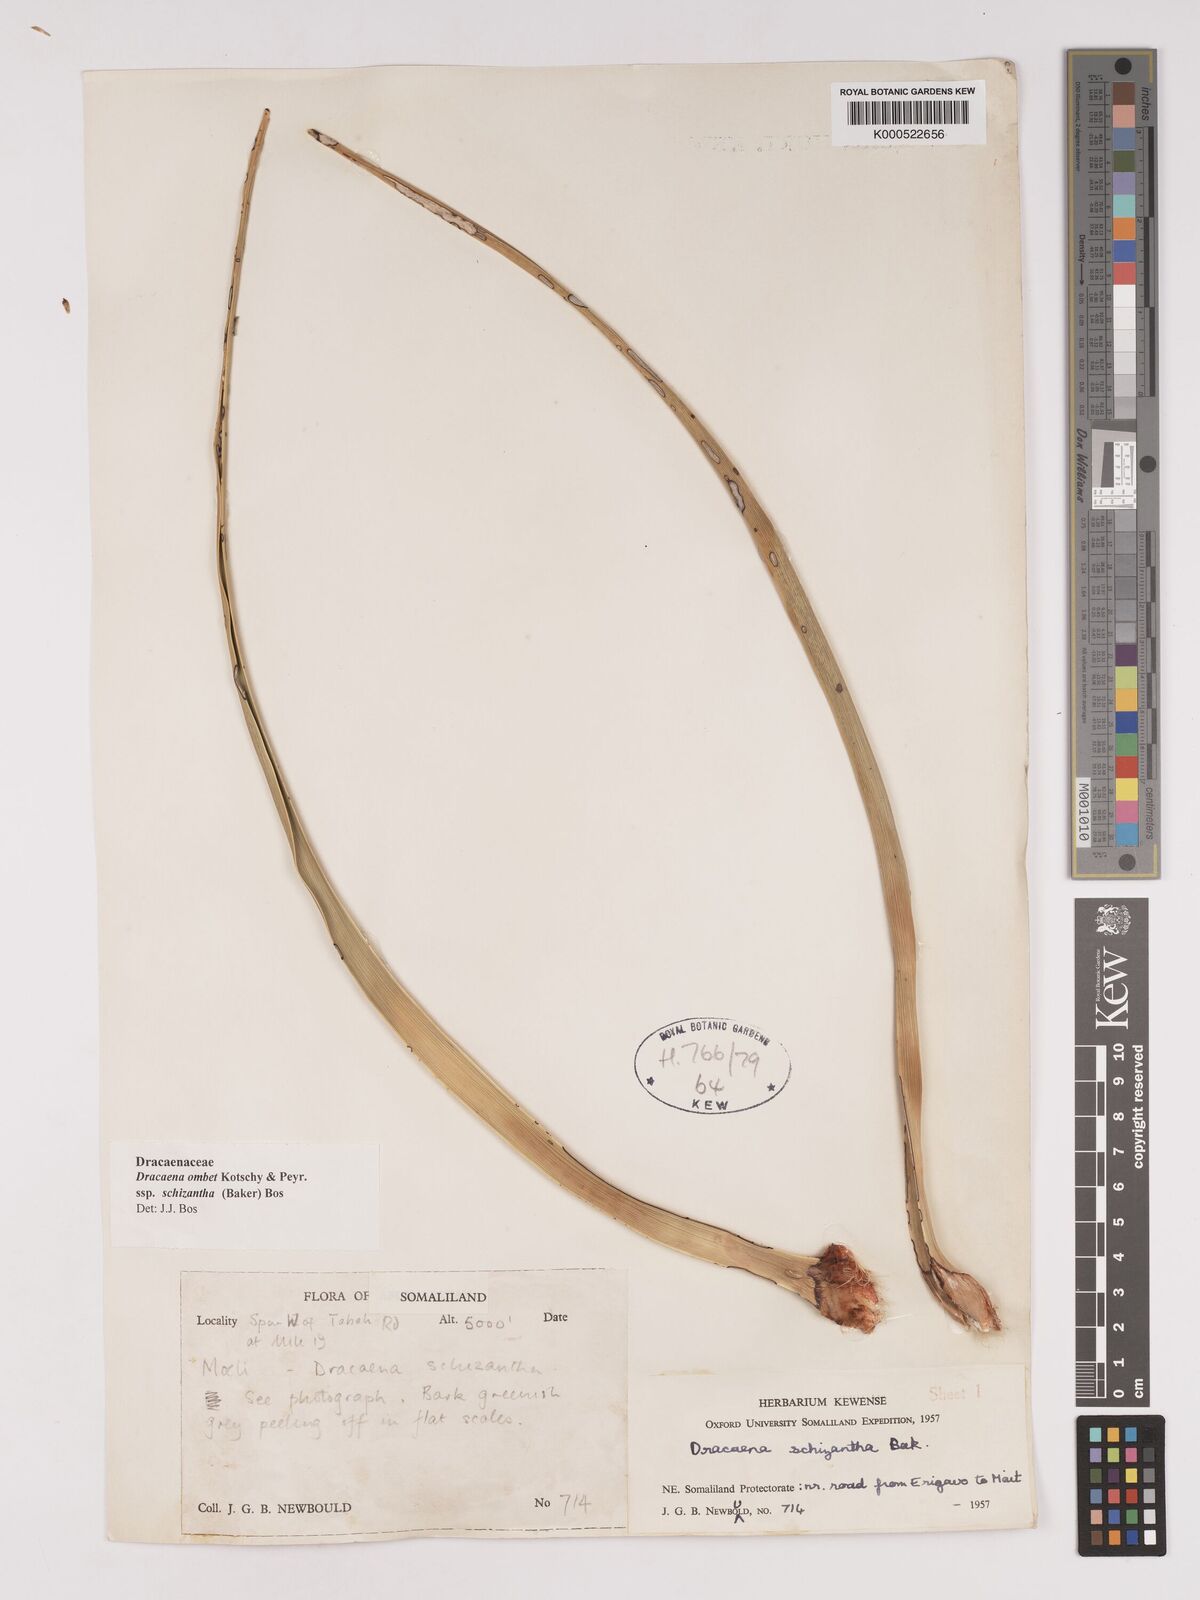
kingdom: Plantae
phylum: Tracheophyta
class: Liliopsida
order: Asparagales
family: Asparagaceae
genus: Dracaena
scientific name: Dracaena ombet
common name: Gabal elba dragon tree
